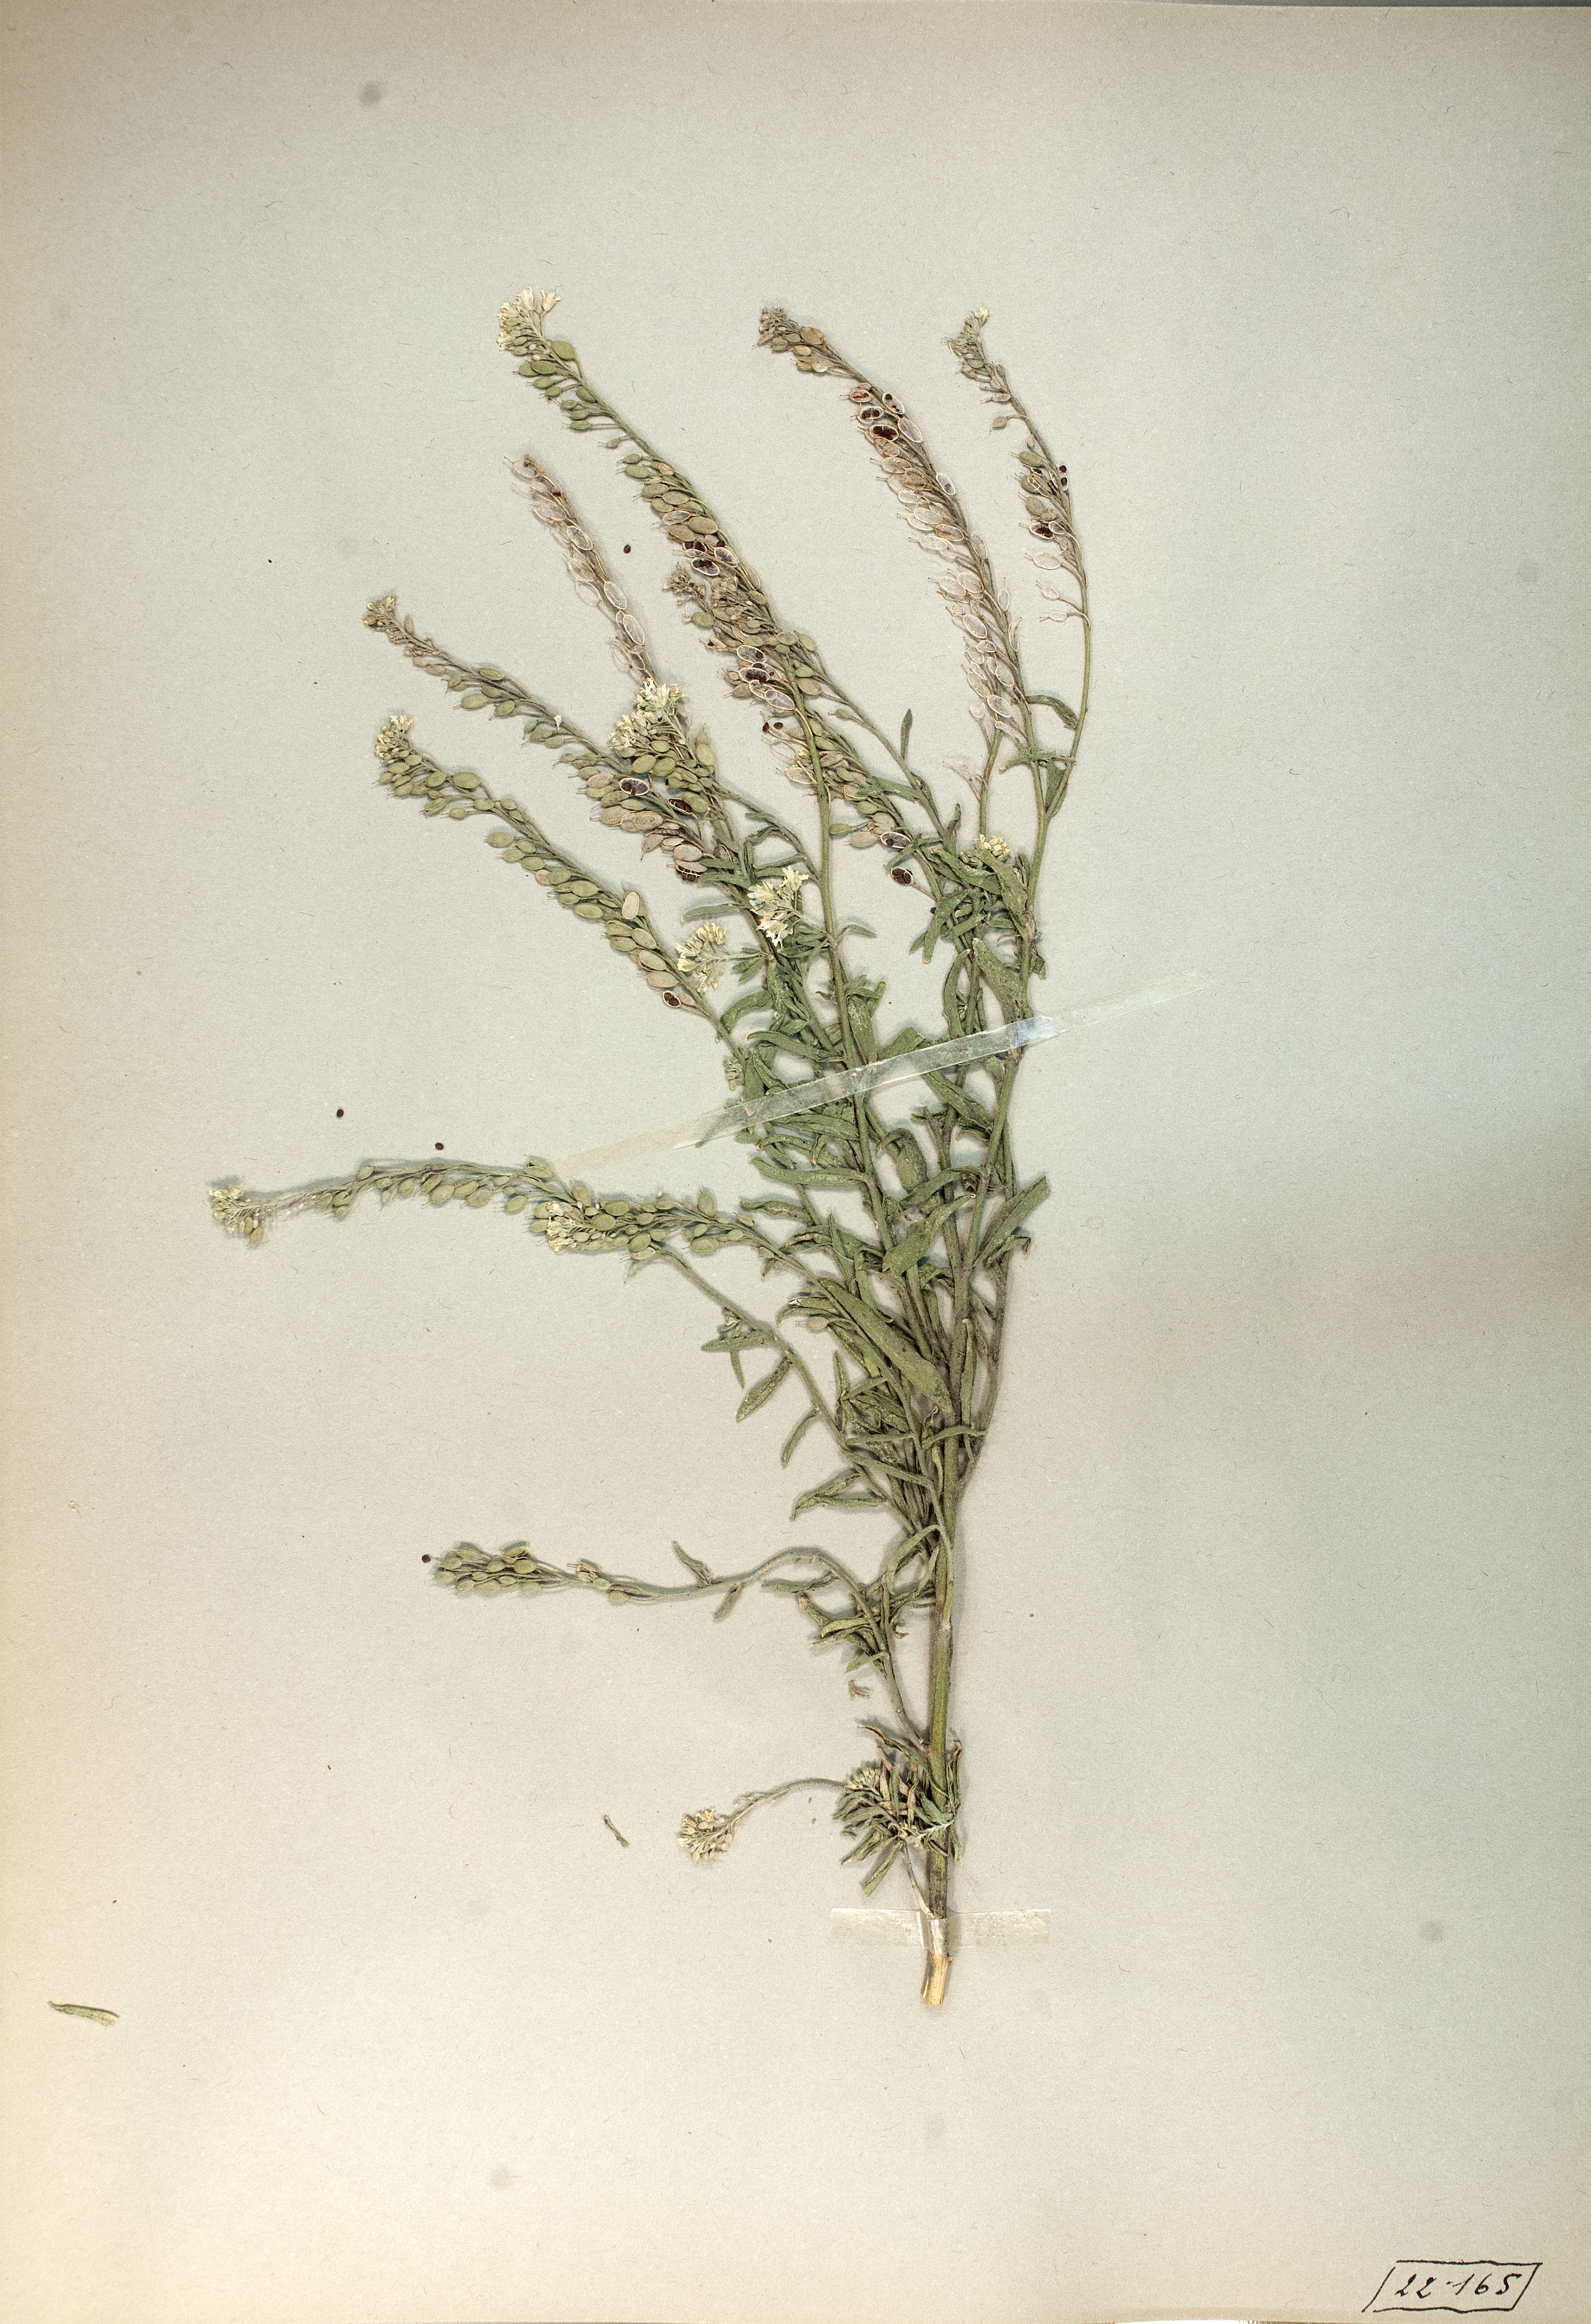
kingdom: Plantae
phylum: Tracheophyta
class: Magnoliopsida
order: Brassicales
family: Brassicaceae
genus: Berteroa
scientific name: Berteroa incana
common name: Hoary alison
